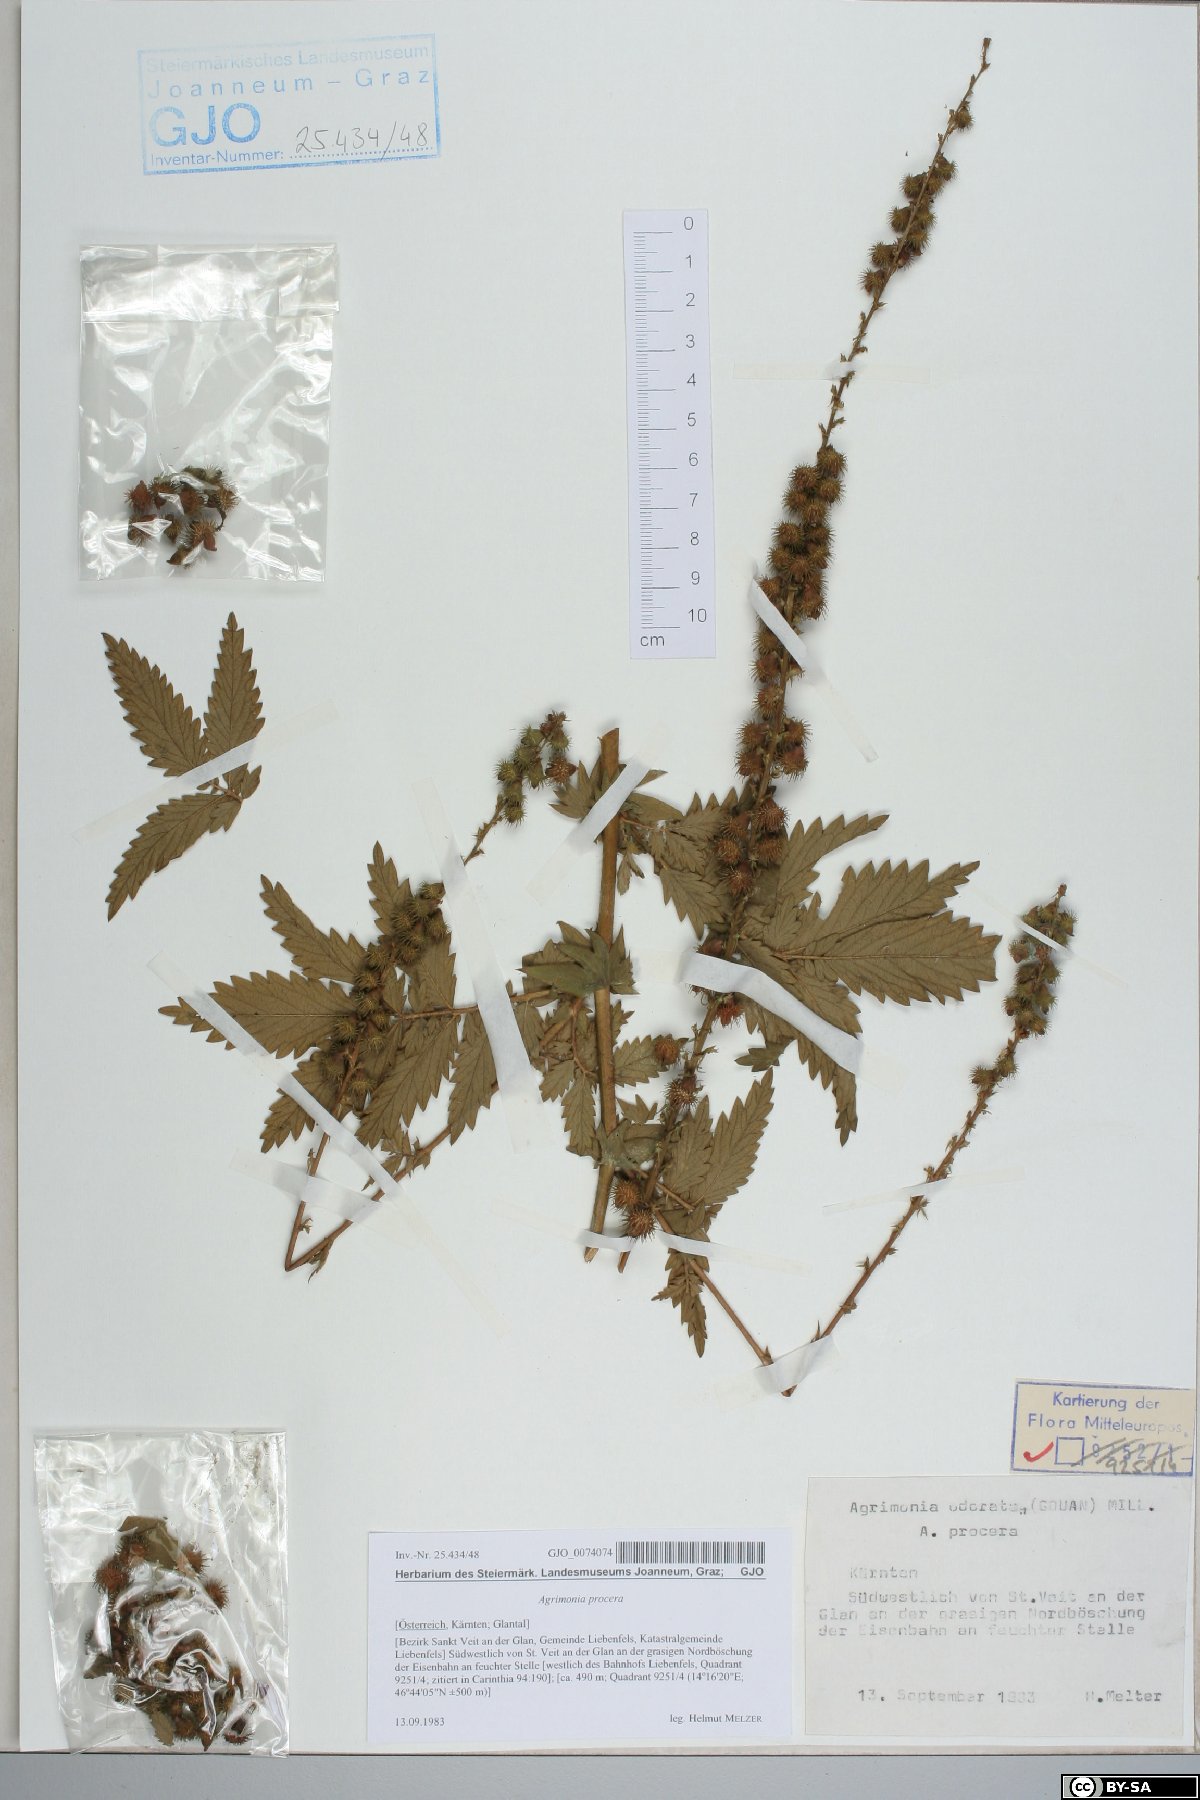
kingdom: Plantae
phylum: Tracheophyta
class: Magnoliopsida
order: Rosales
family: Rosaceae
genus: Agrimonia
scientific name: Agrimonia procera
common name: Fragrant agrimony
